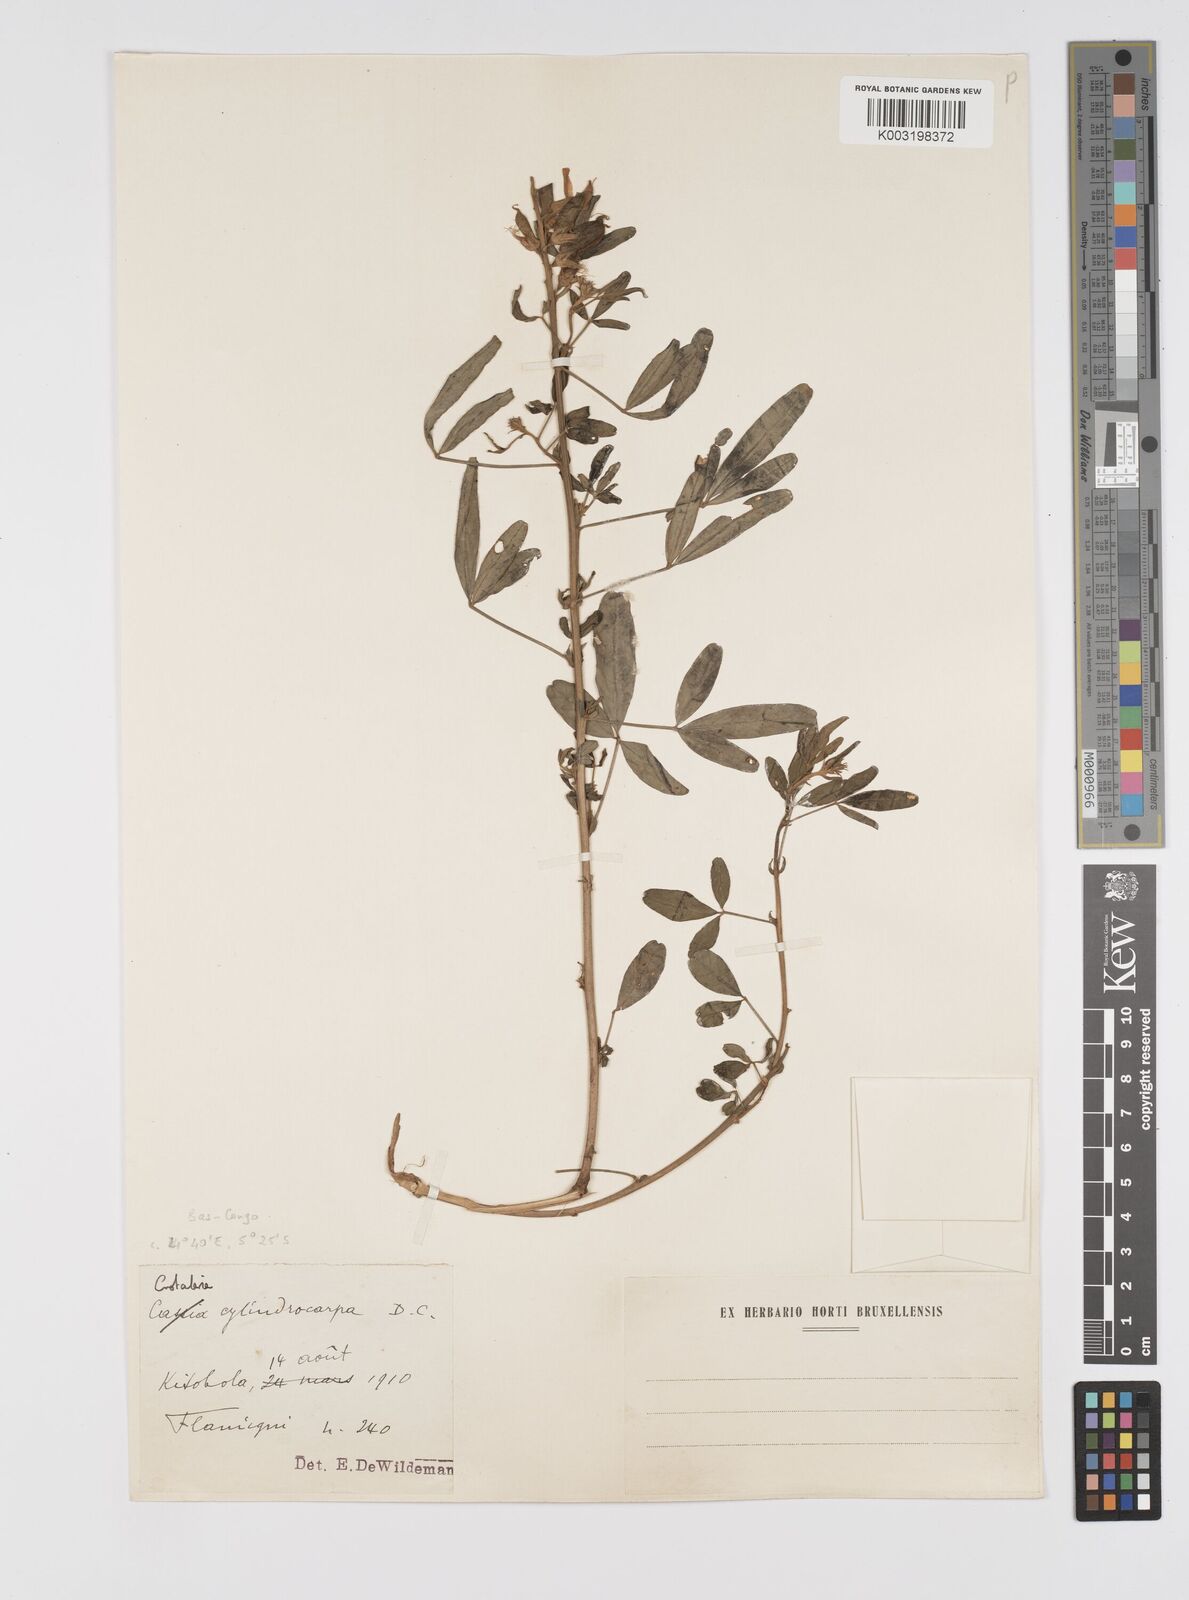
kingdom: Plantae
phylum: Tracheophyta
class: Magnoliopsida
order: Fabales
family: Fabaceae
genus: Crotalaria
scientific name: Crotalaria cylindrocarpa
